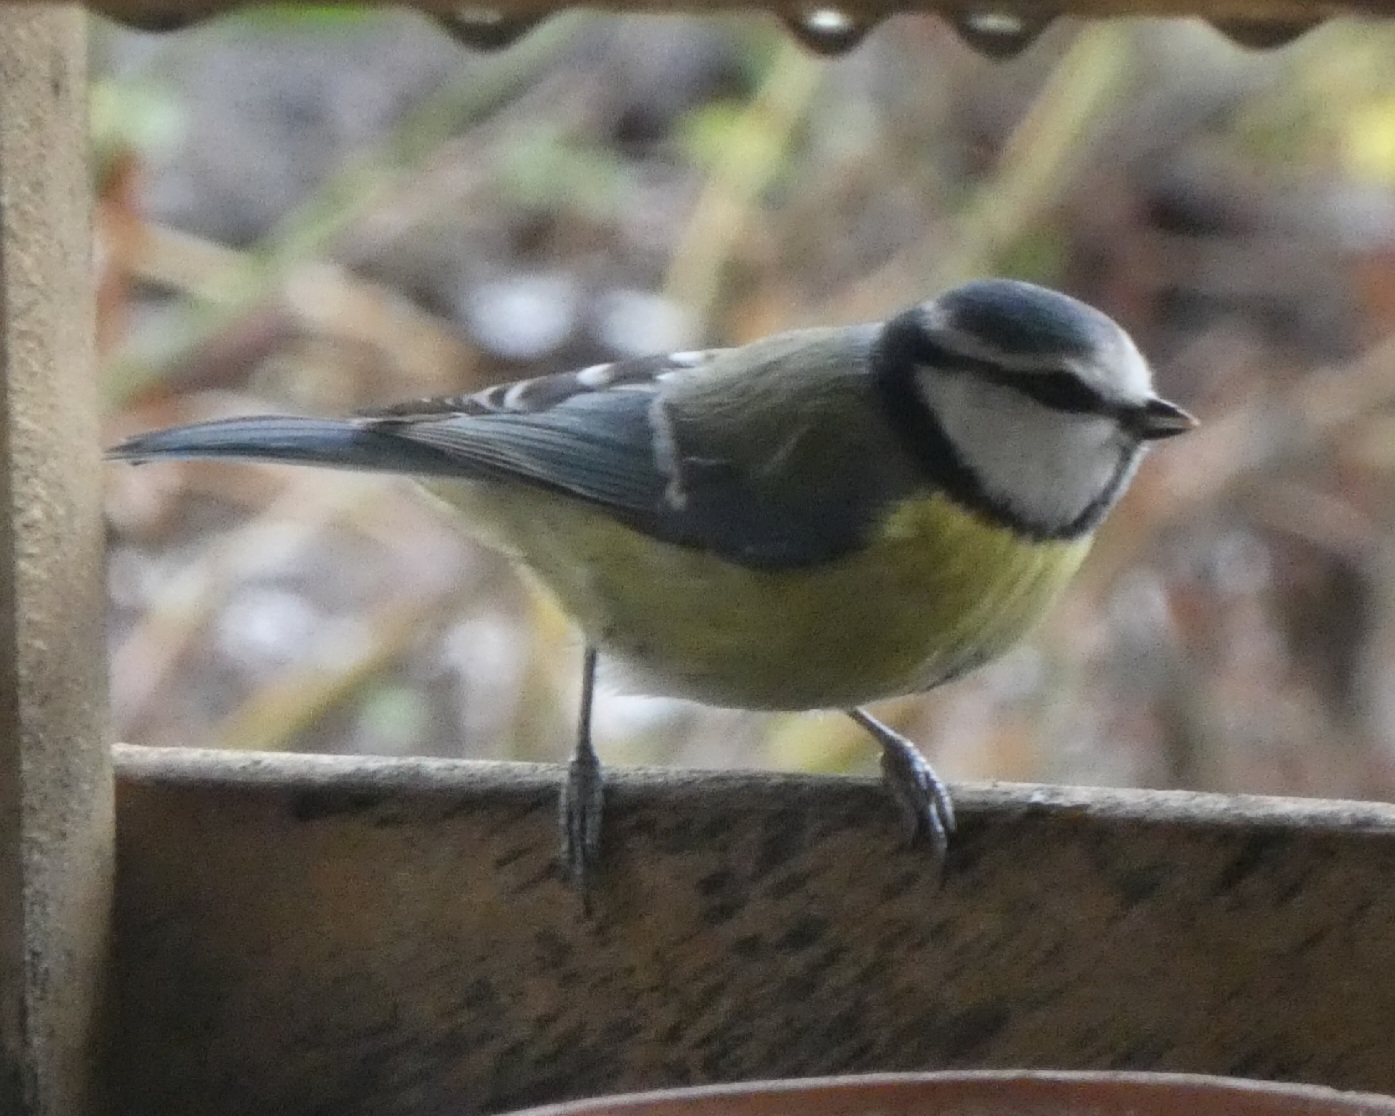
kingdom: Animalia
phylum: Chordata
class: Aves
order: Passeriformes
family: Paridae
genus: Cyanistes
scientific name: Cyanistes caeruleus
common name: Blåmejse
